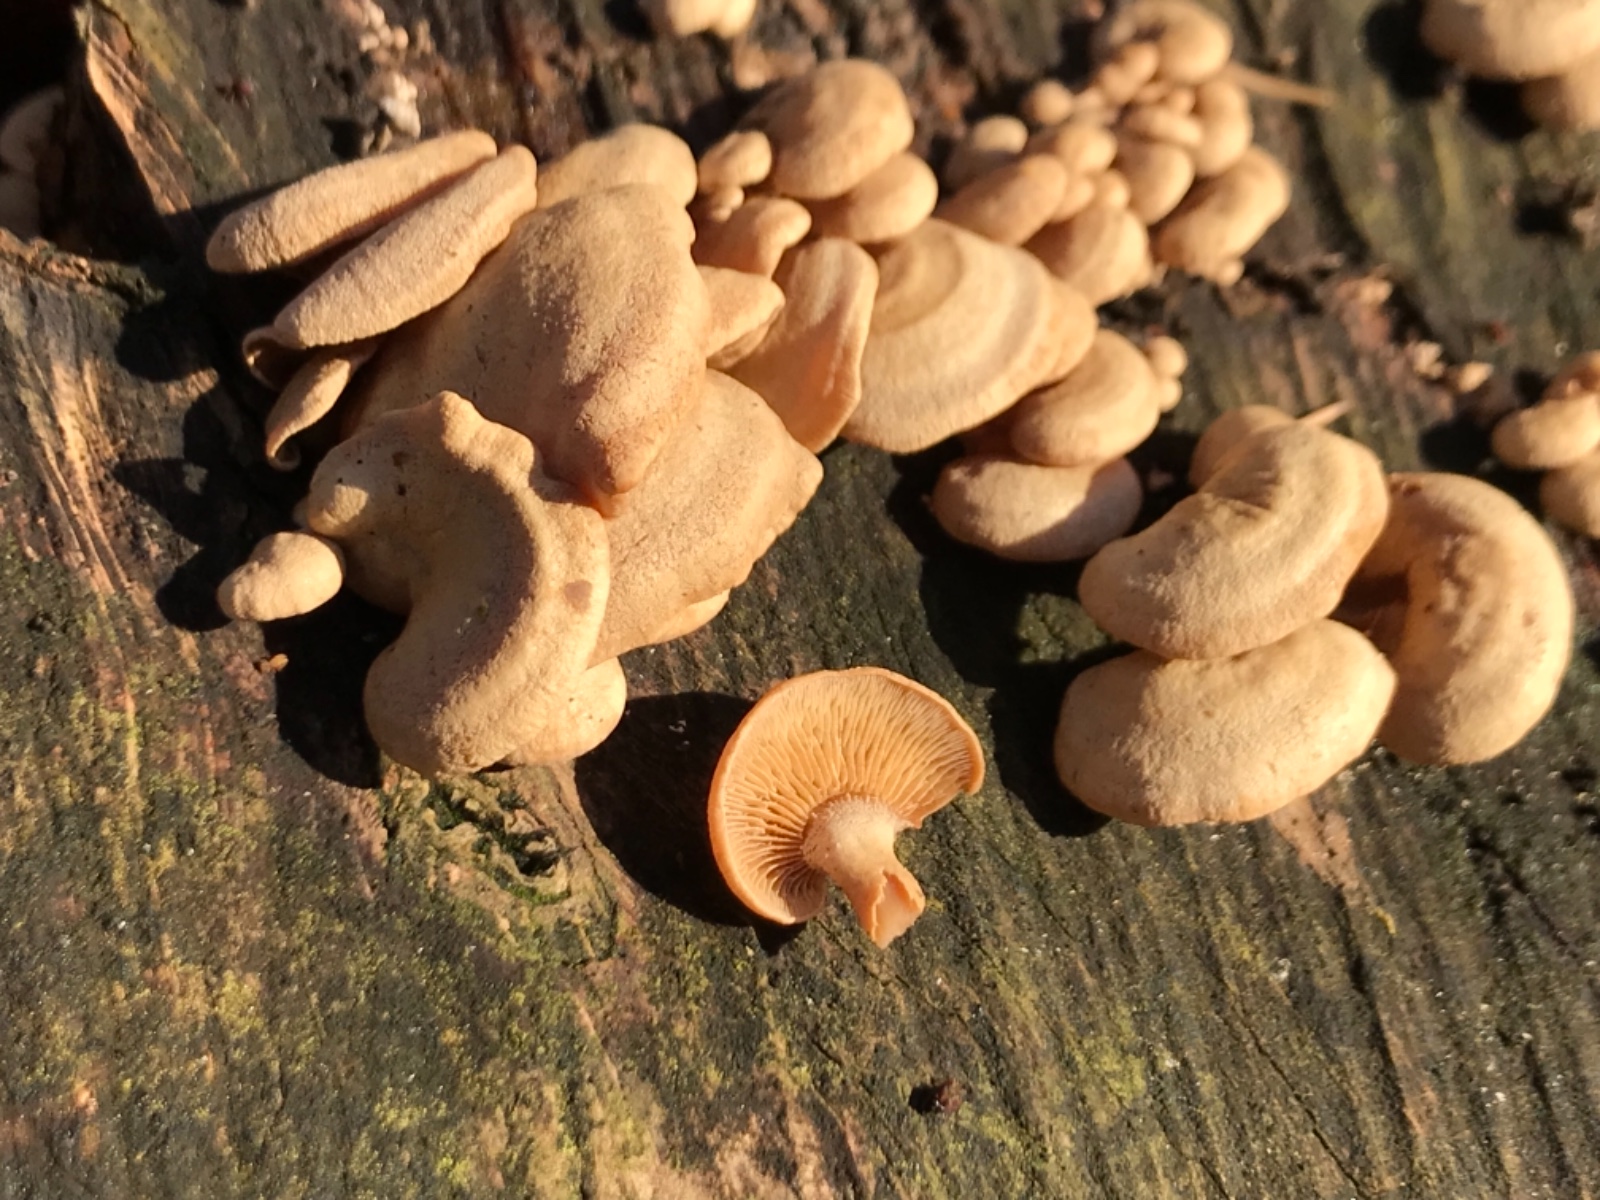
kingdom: Fungi
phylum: Basidiomycota
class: Agaricomycetes
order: Agaricales
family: Mycenaceae
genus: Panellus
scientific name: Panellus stipticus
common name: kliddet epaulethat
